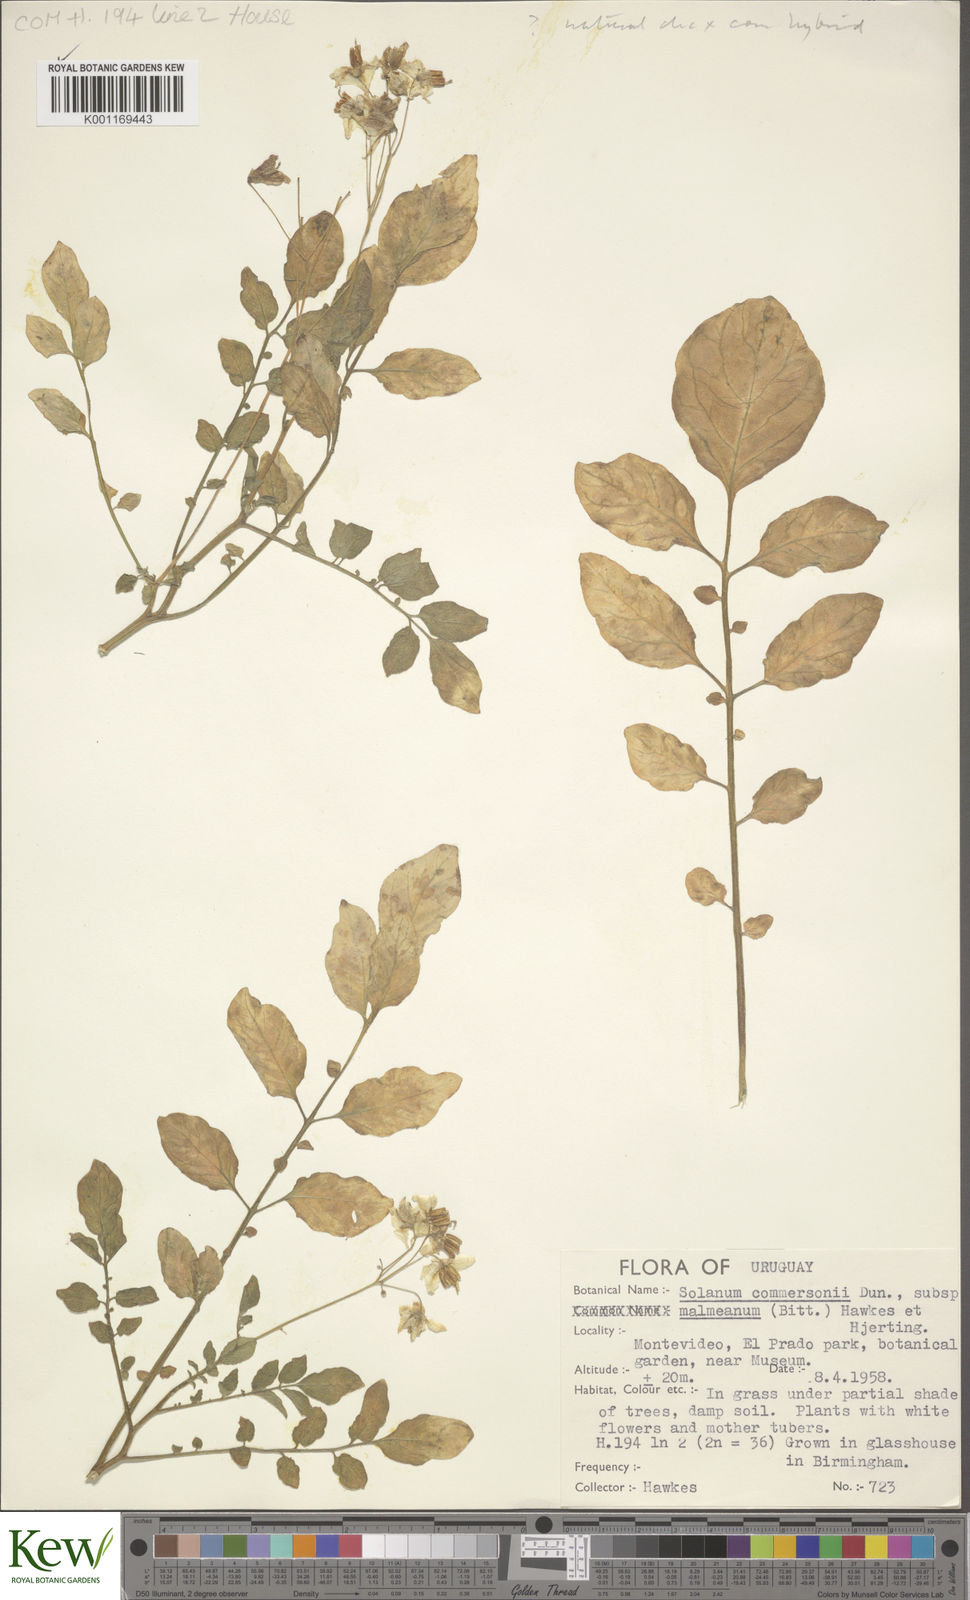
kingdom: Plantae
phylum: Tracheophyta
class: Magnoliopsida
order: Solanales
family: Solanaceae
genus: Solanum
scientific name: Solanum malmeanum
